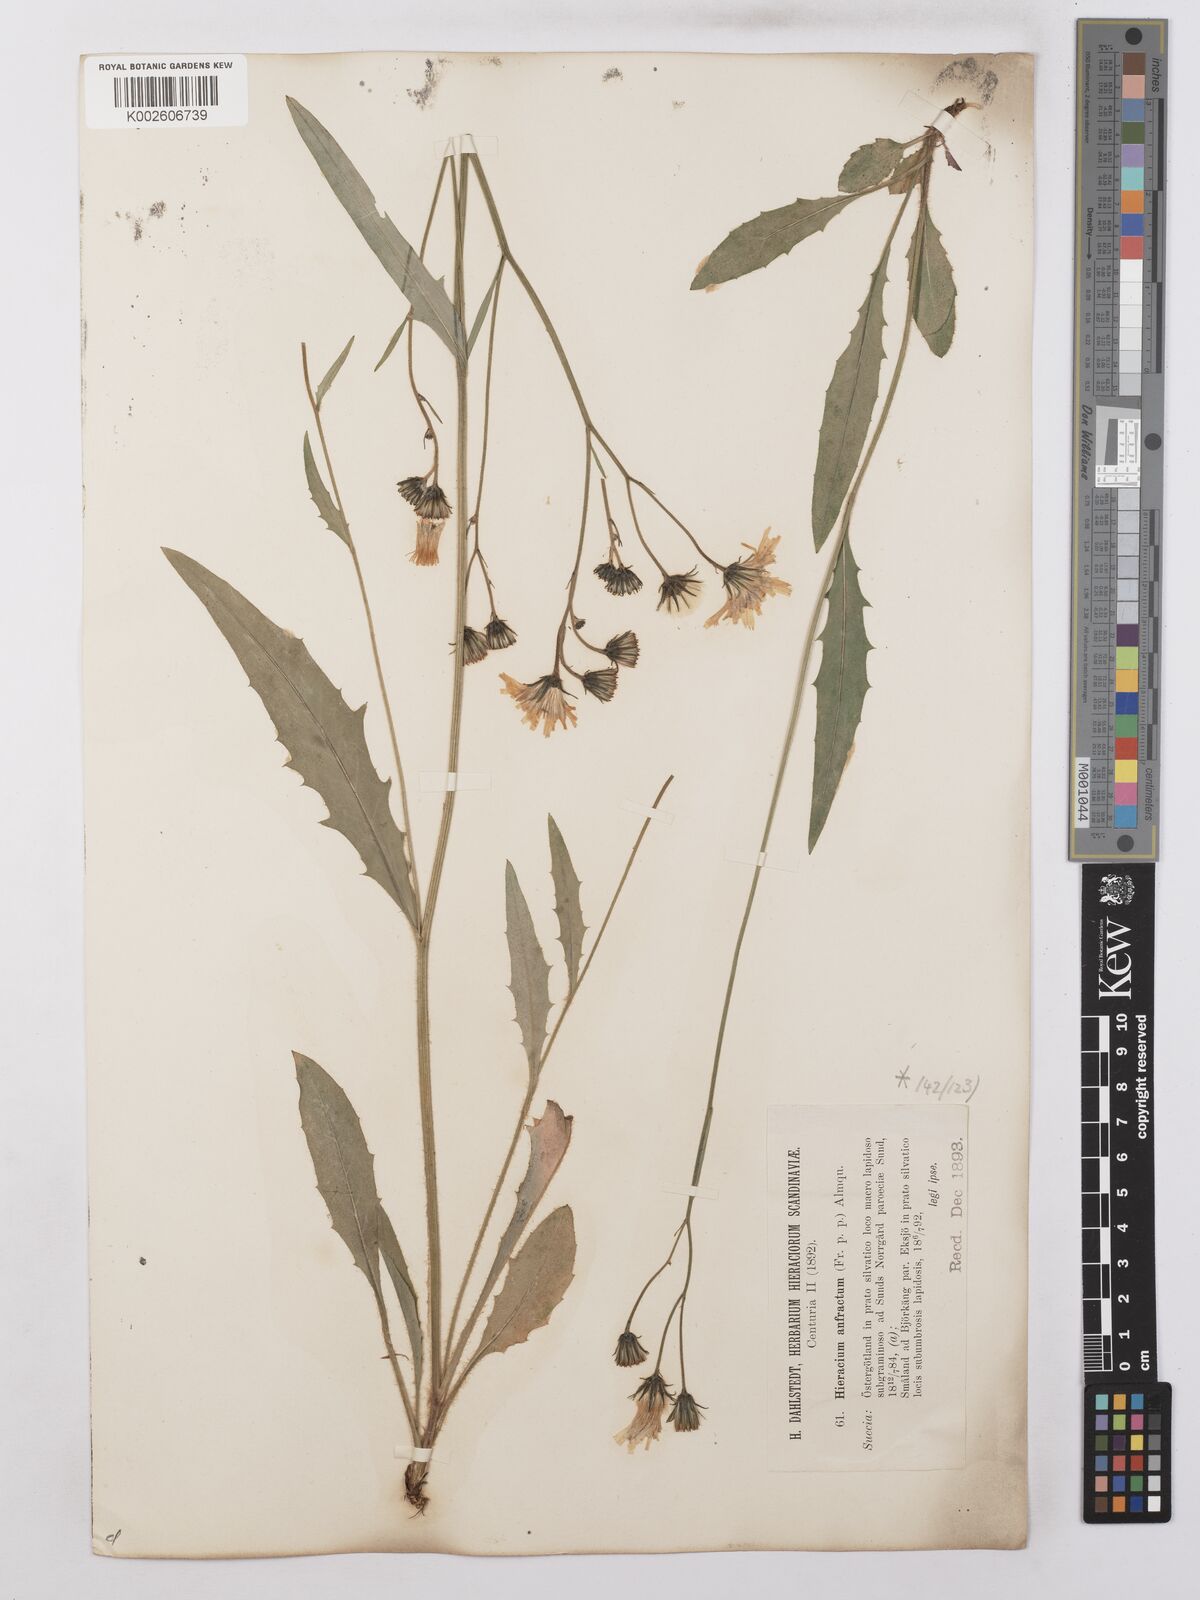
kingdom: Plantae
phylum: Tracheophyta
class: Magnoliopsida
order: Asterales
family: Asteraceae
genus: Hieracium
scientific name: Hieracium lachenalii
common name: Common hawkweed
